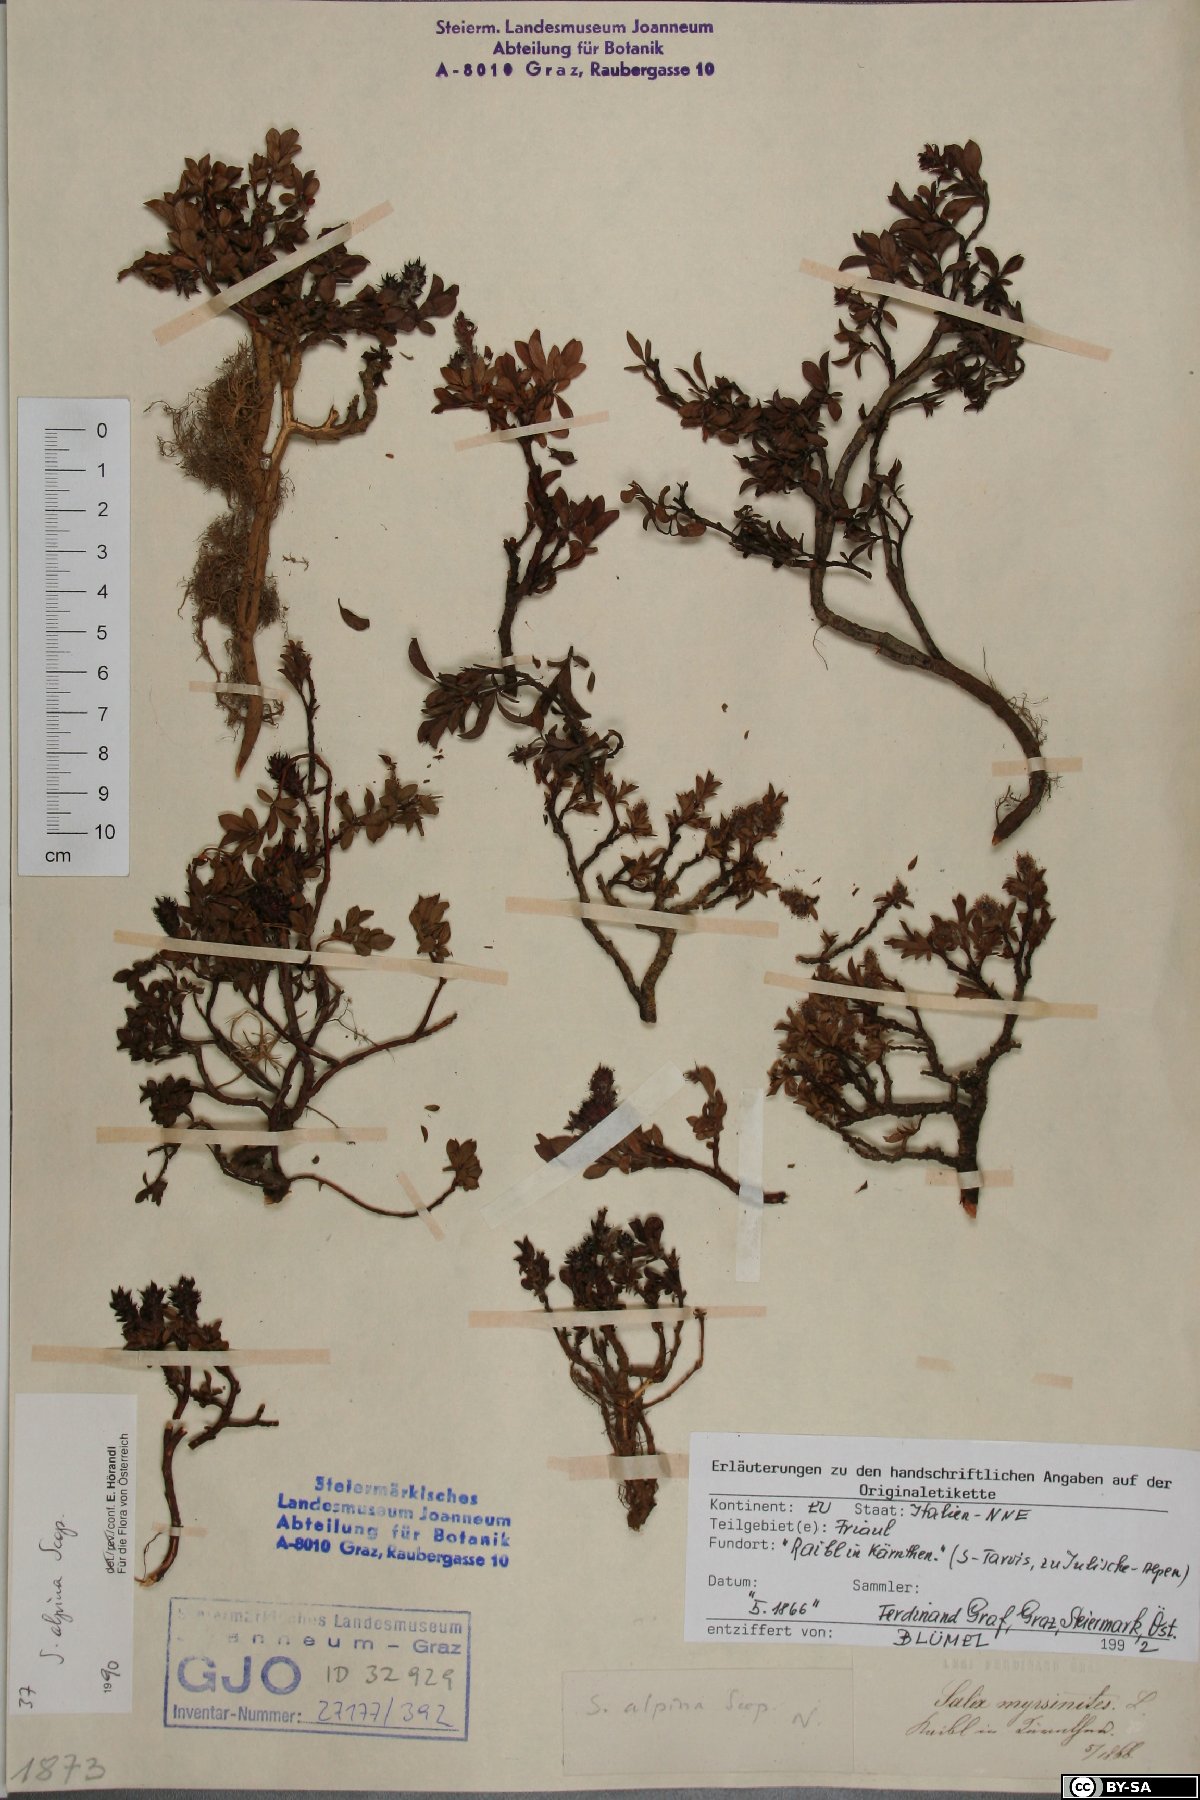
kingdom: Plantae
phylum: Tracheophyta
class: Magnoliopsida
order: Malpighiales
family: Salicaceae
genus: Salix
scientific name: Salix alpina
